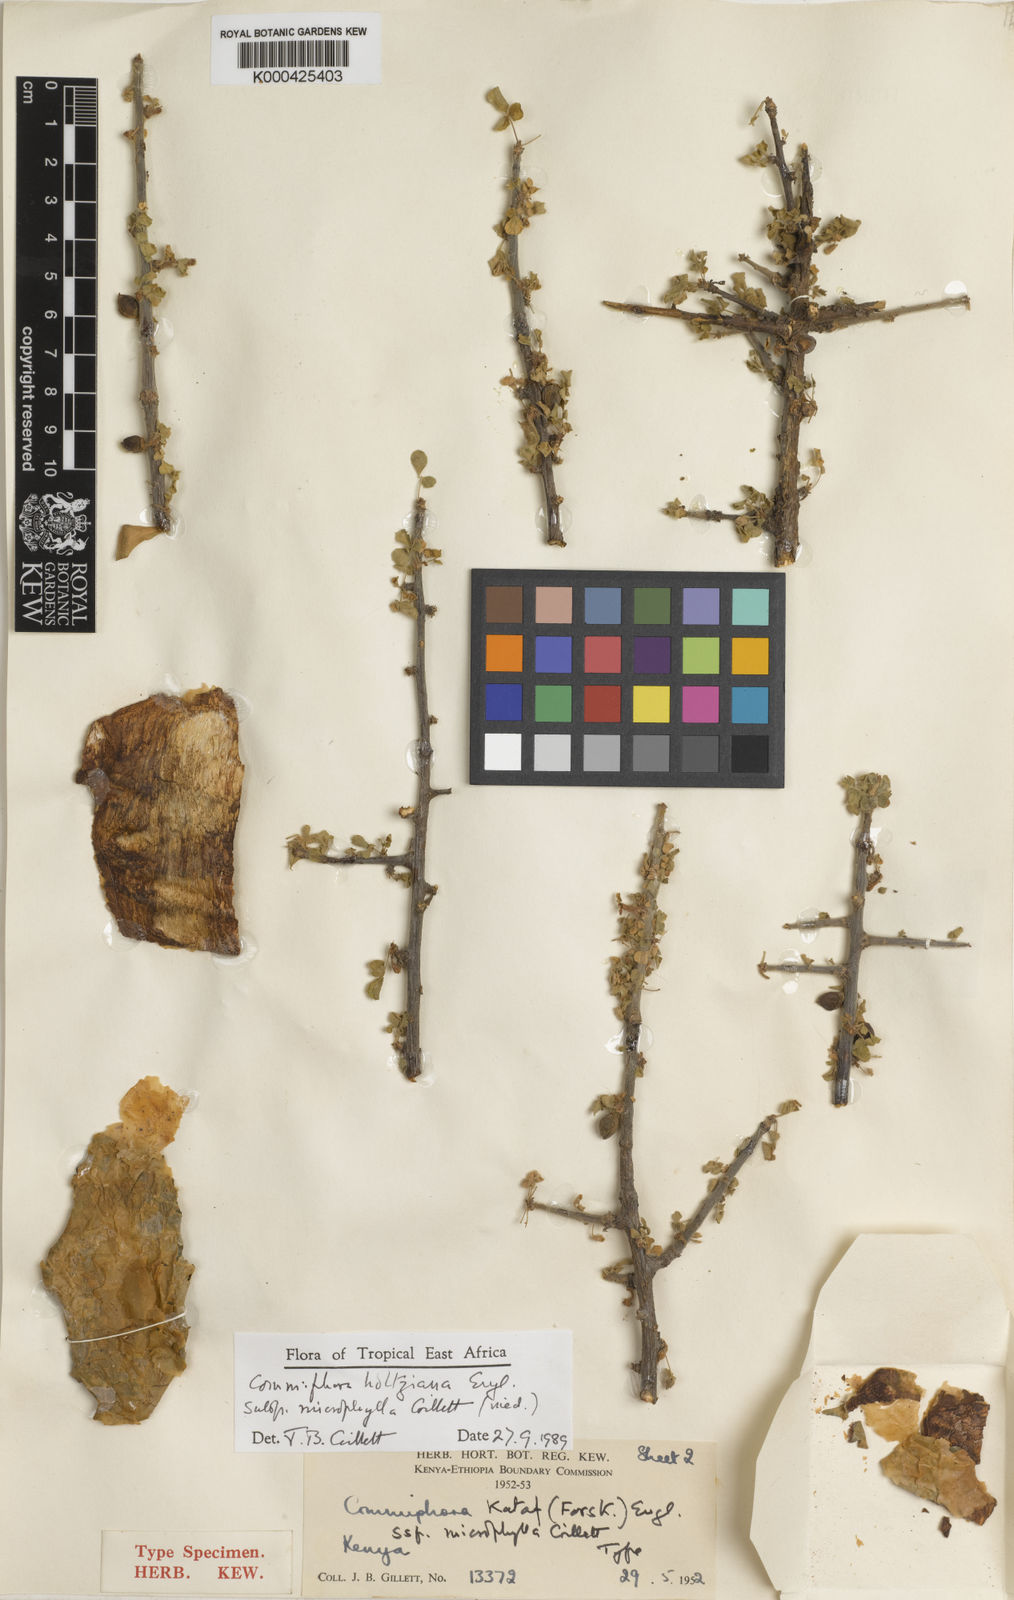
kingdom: Plantae
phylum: Tracheophyta
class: Magnoliopsida
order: Sapindales
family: Burseraceae
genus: Commiphora
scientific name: Commiphora kataf
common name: Bisabol myrrh
